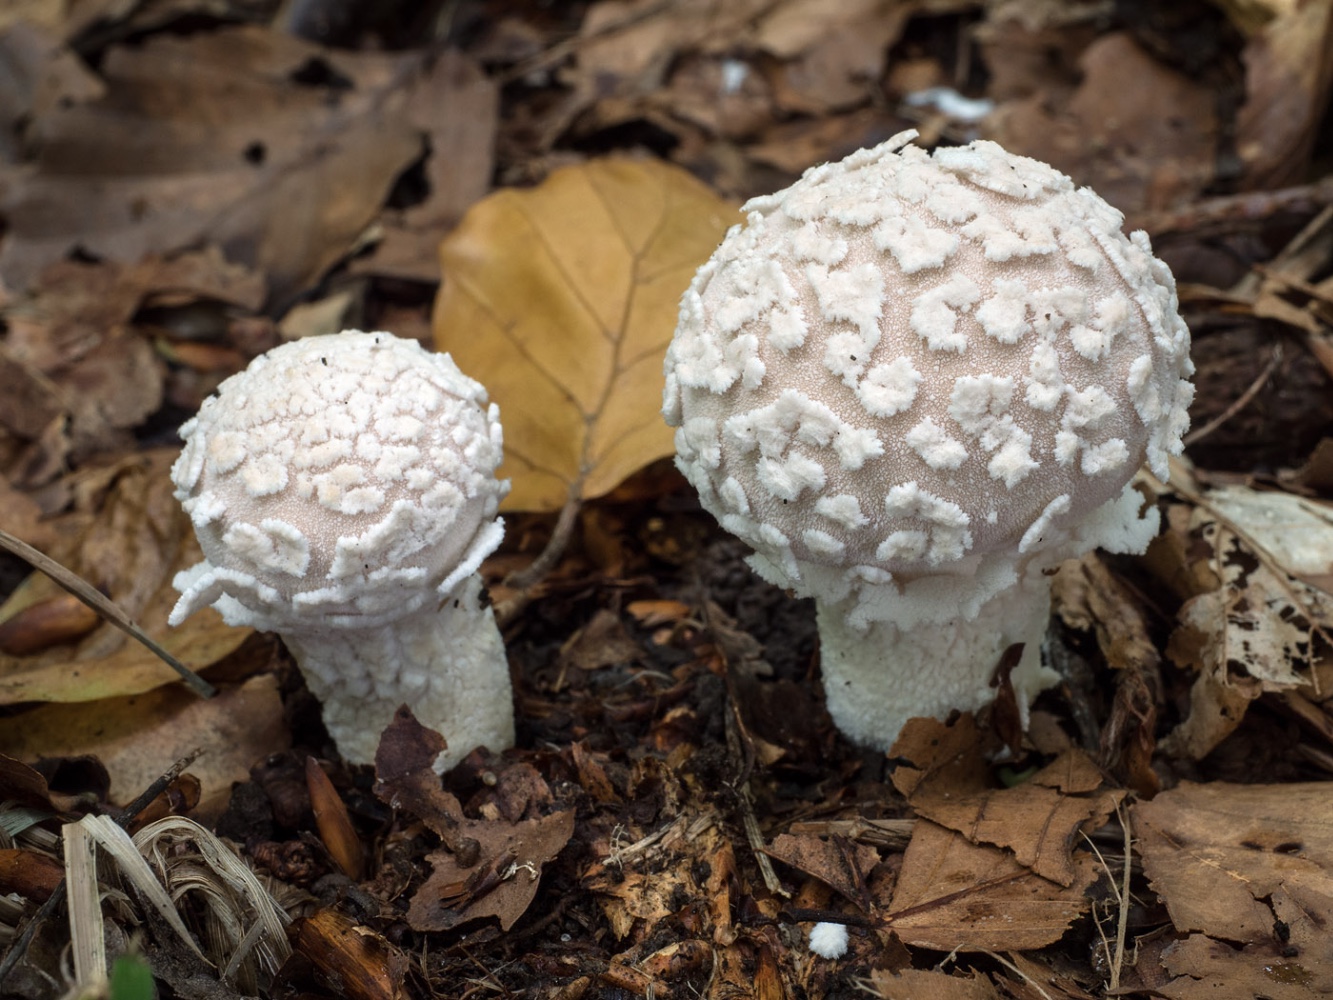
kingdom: Fungi
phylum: Basidiomycota
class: Agaricomycetes
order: Agaricales
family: Lycoperdaceae
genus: Lycoperdon
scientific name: Lycoperdon mammiforme
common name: rosa støvbold
